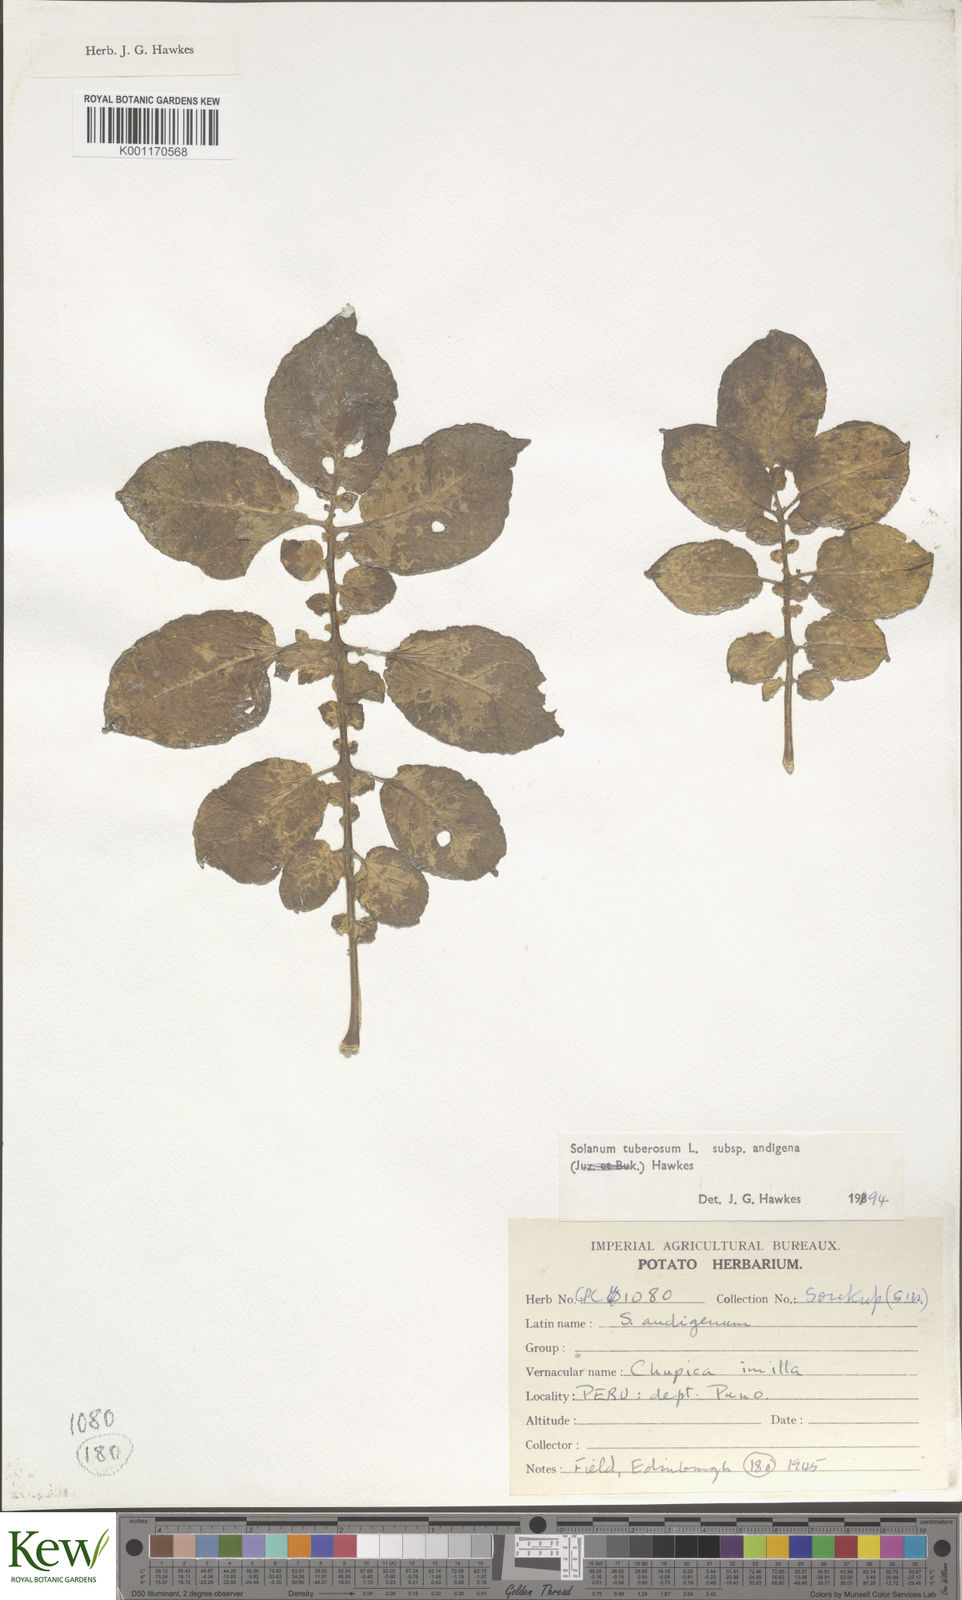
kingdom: Plantae
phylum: Tracheophyta
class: Magnoliopsida
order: Solanales
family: Solanaceae
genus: Solanum
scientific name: Solanum tuberosum
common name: Potato
